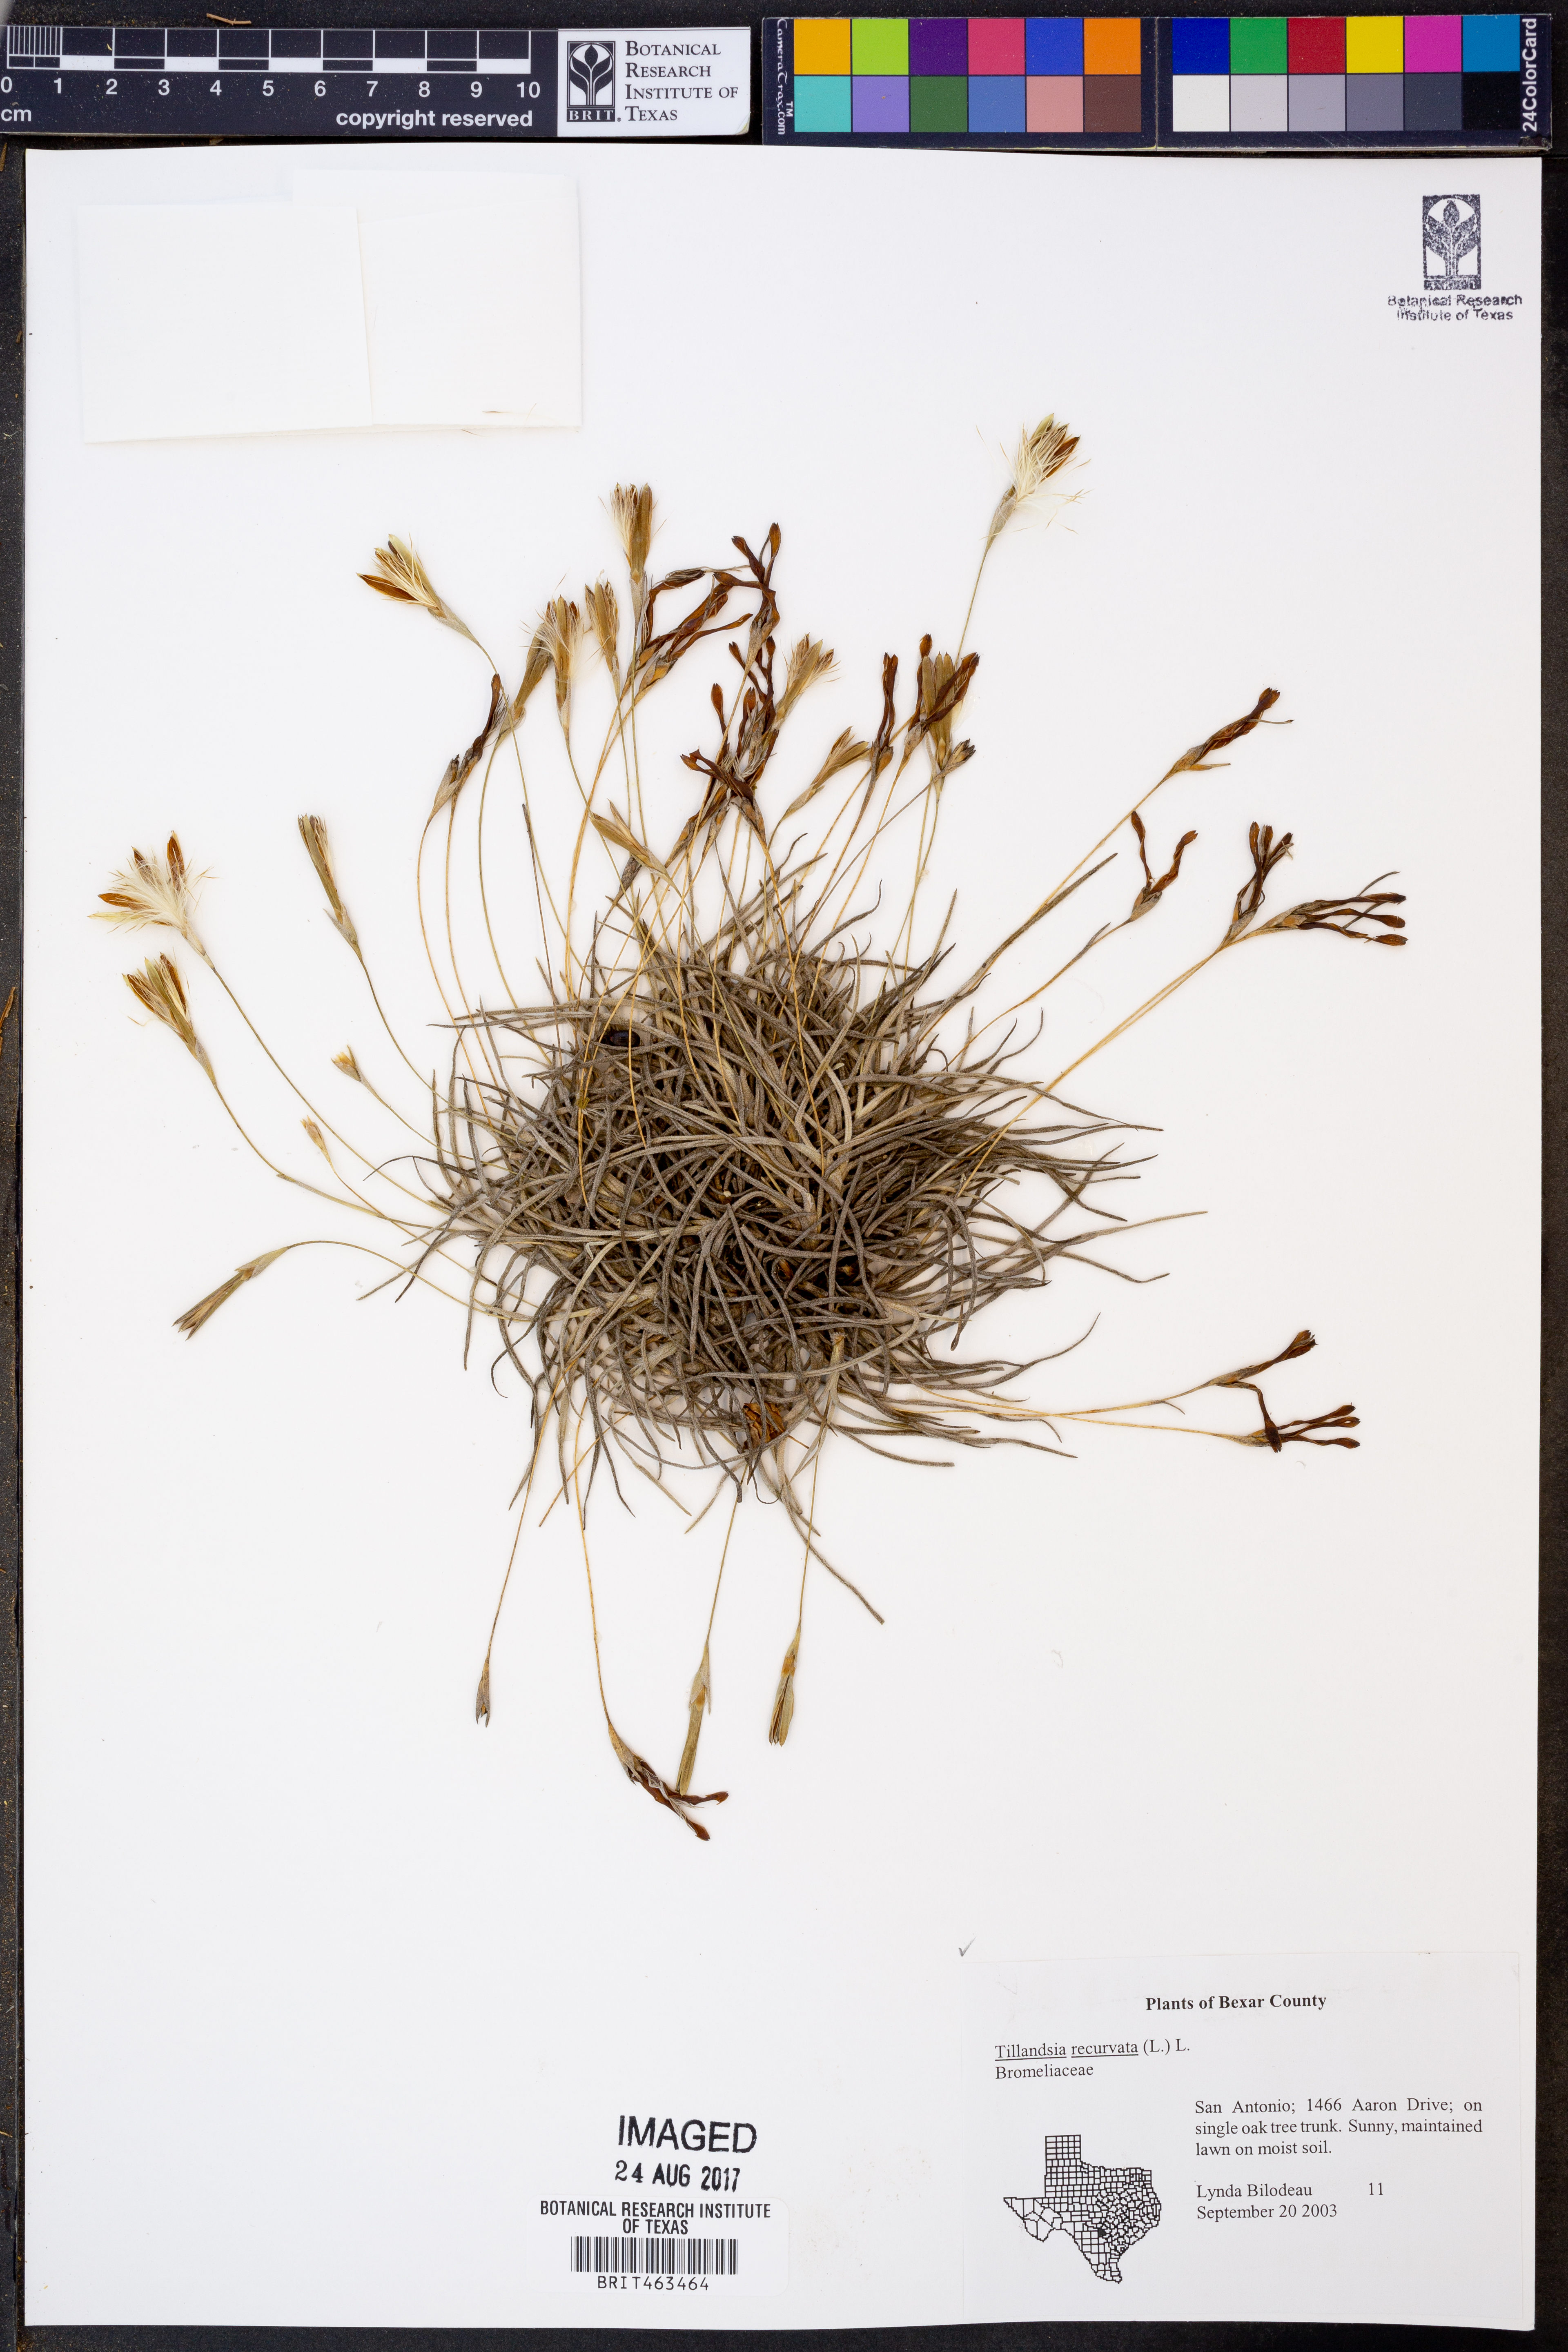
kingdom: Plantae
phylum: Tracheophyta
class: Liliopsida
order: Poales
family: Bromeliaceae
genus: Tillandsia
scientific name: Tillandsia recurvata
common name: Small ballmoss
